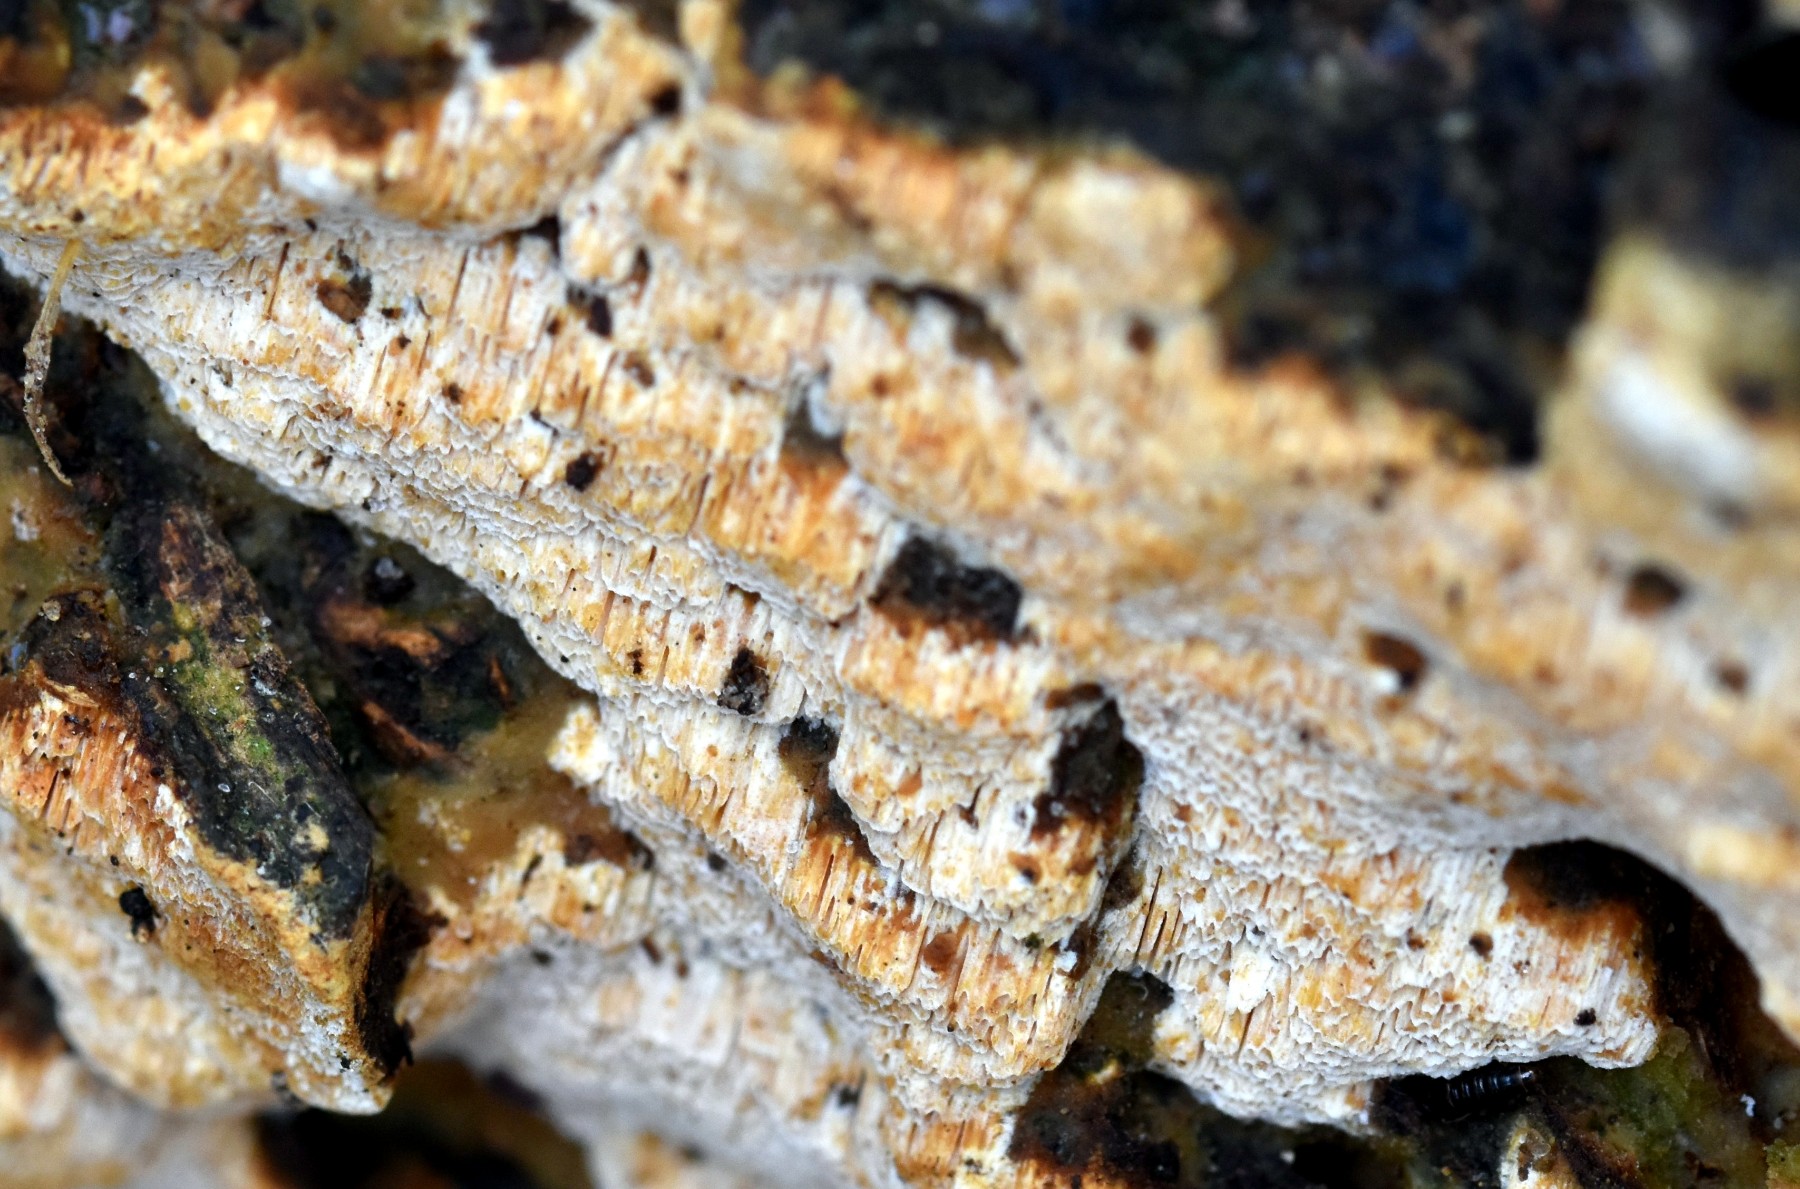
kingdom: Fungi
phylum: Basidiomycota
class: Agaricomycetes
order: Hymenochaetales
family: Schizoporaceae
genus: Xylodon
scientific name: Xylodon flaviporus
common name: gulporet tandsvamp
